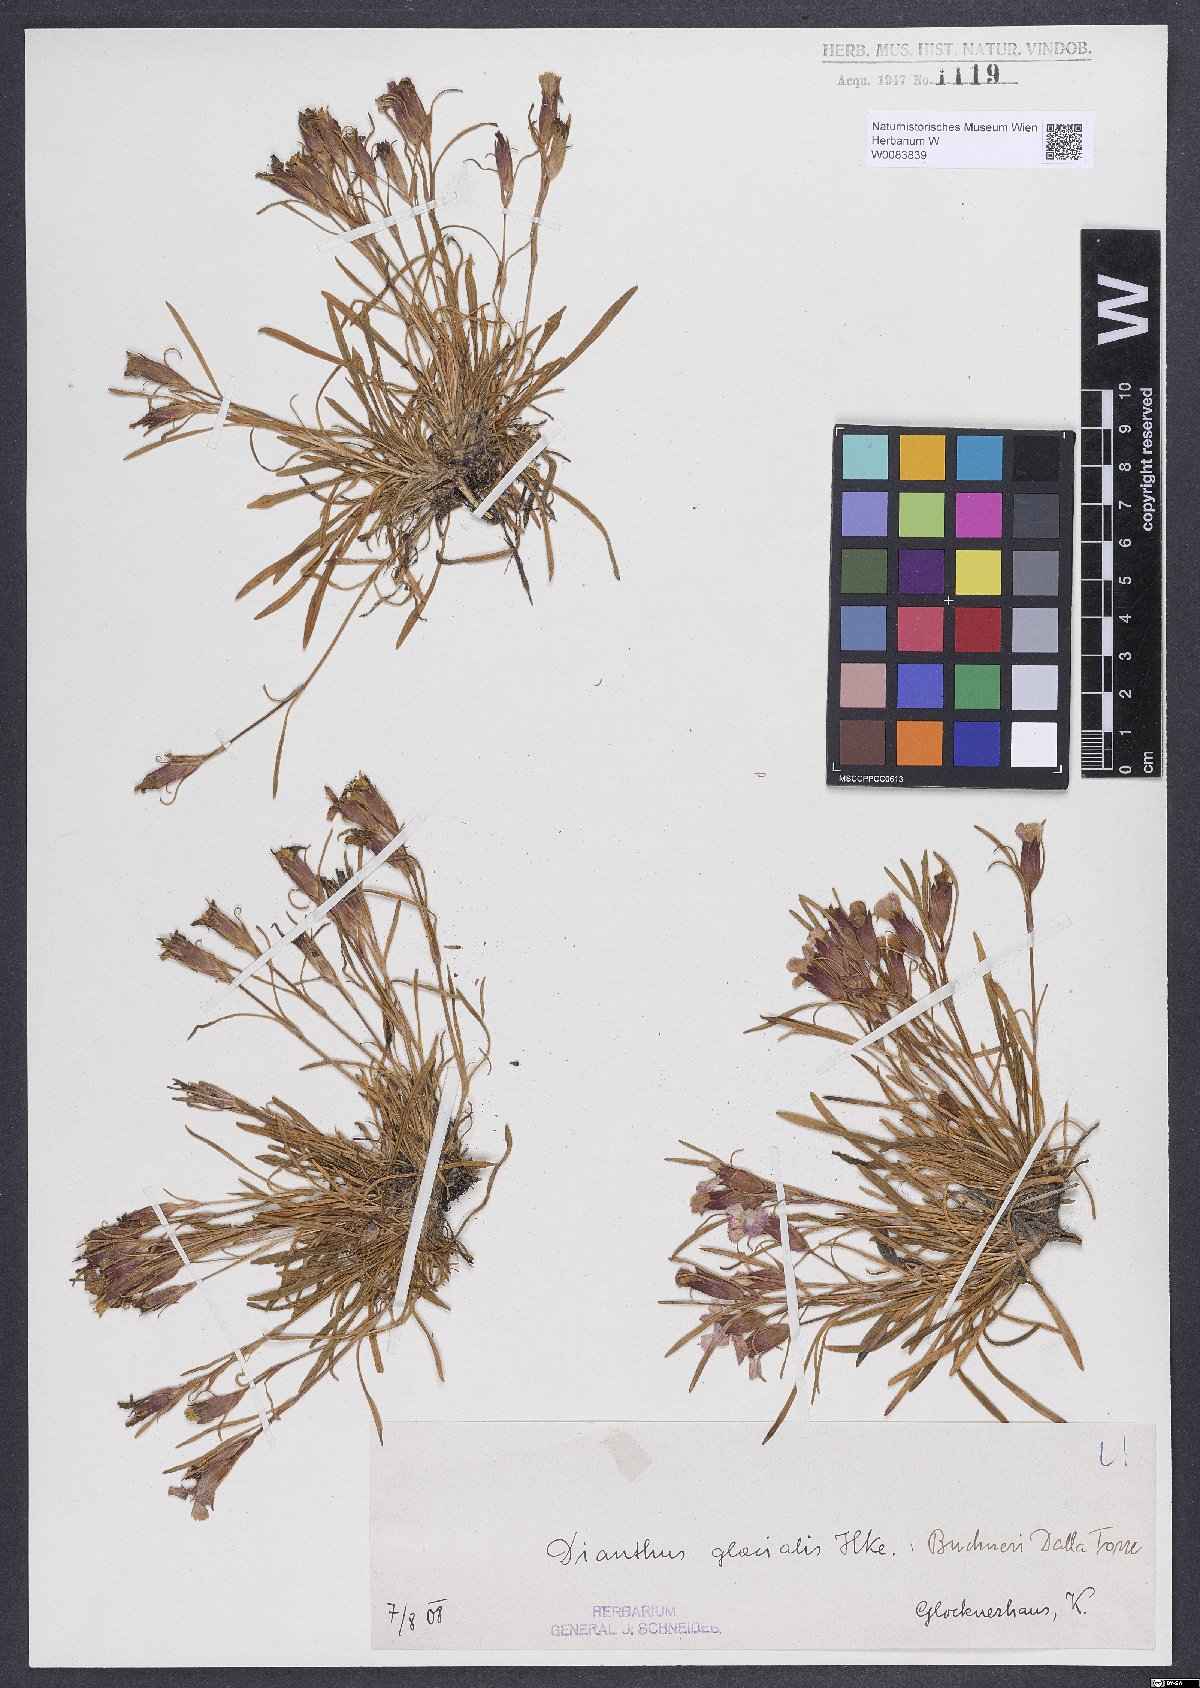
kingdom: Plantae
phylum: Tracheophyta
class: Magnoliopsida
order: Caryophyllales
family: Caryophyllaceae
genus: Dianthus
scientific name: Dianthus glacialis
